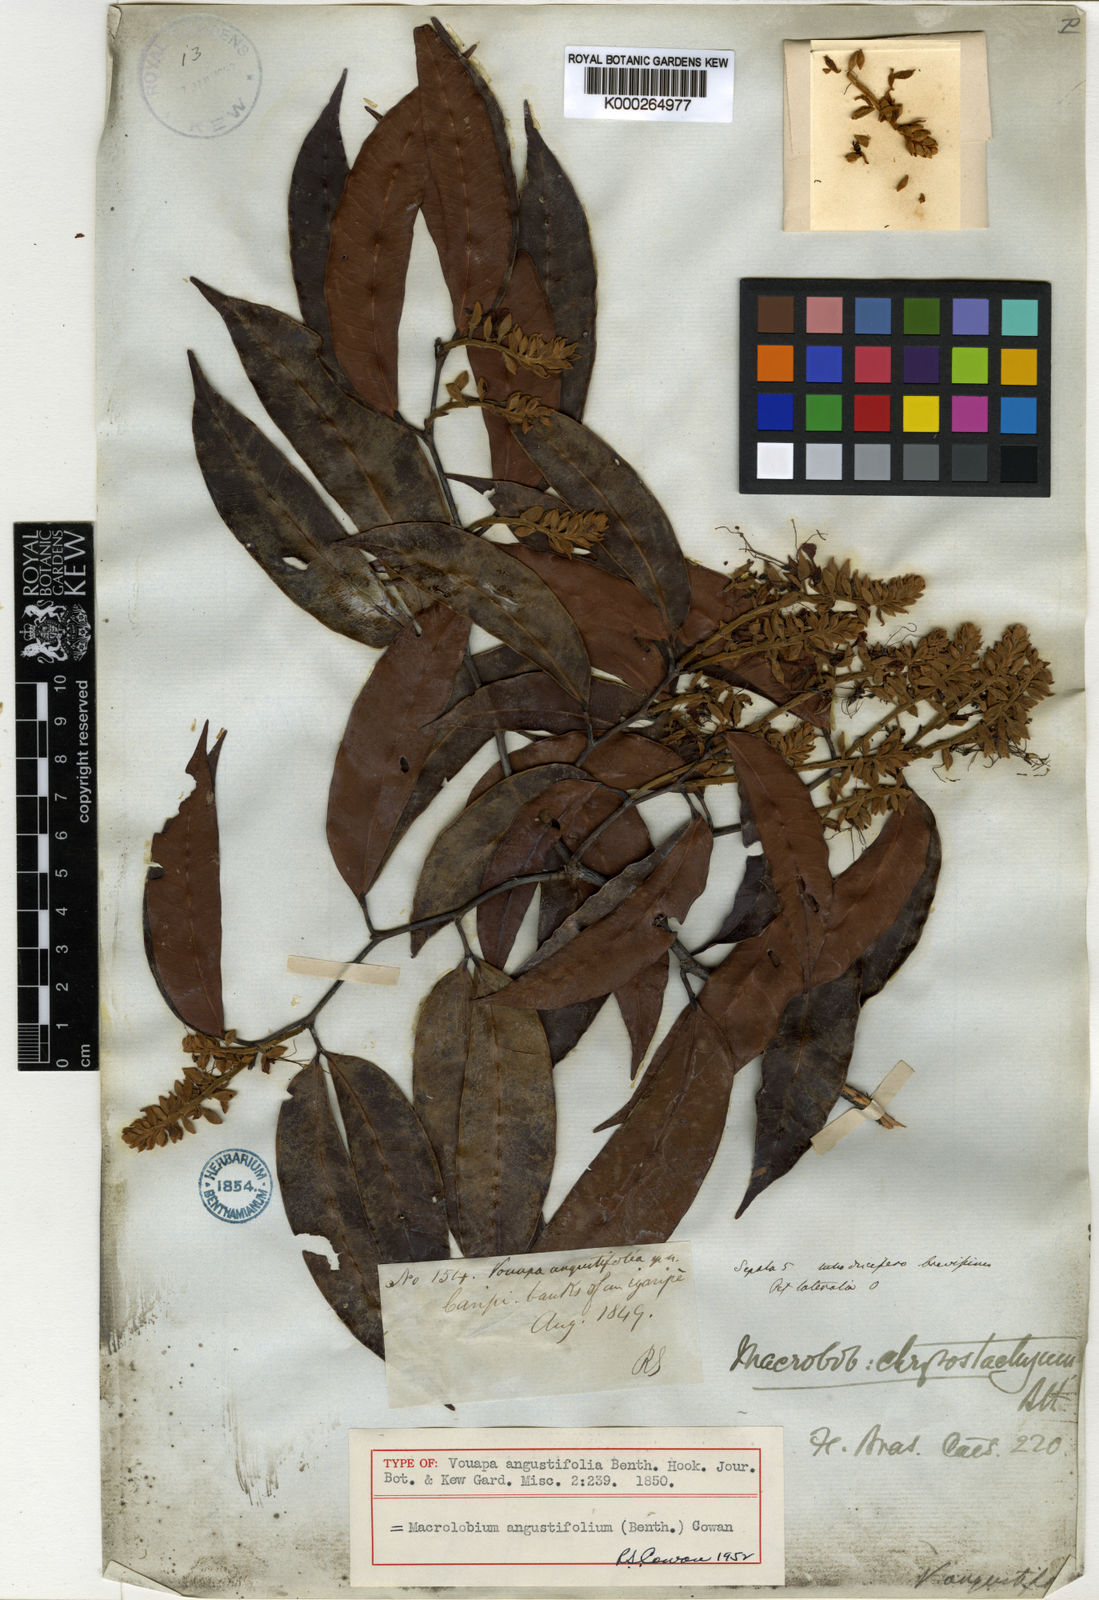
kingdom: Plantae
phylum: Tracheophyta
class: Magnoliopsida
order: Fabales
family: Fabaceae
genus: Macrolobium
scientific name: Macrolobium angustifolium
